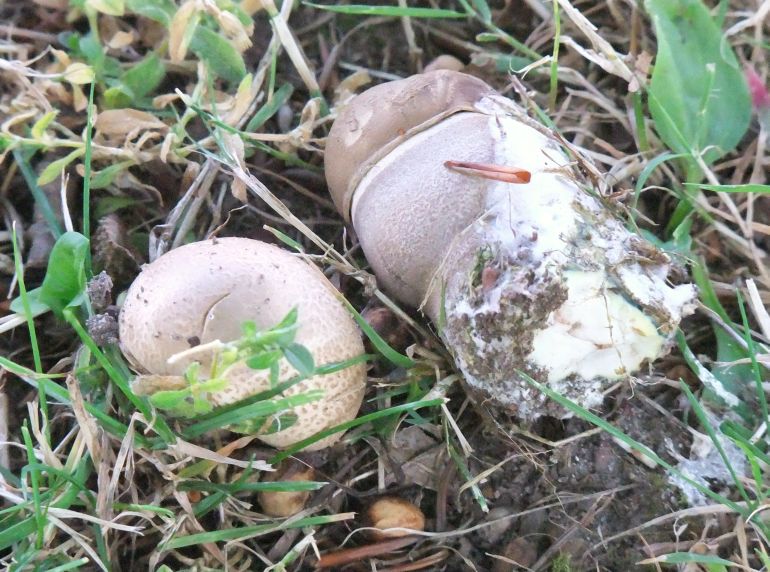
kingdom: Fungi
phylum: Basidiomycota
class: Agaricomycetes
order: Boletales
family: Boletaceae
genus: Leccinum
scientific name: Leccinum duriusculum
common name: poppel-skælrørhat
